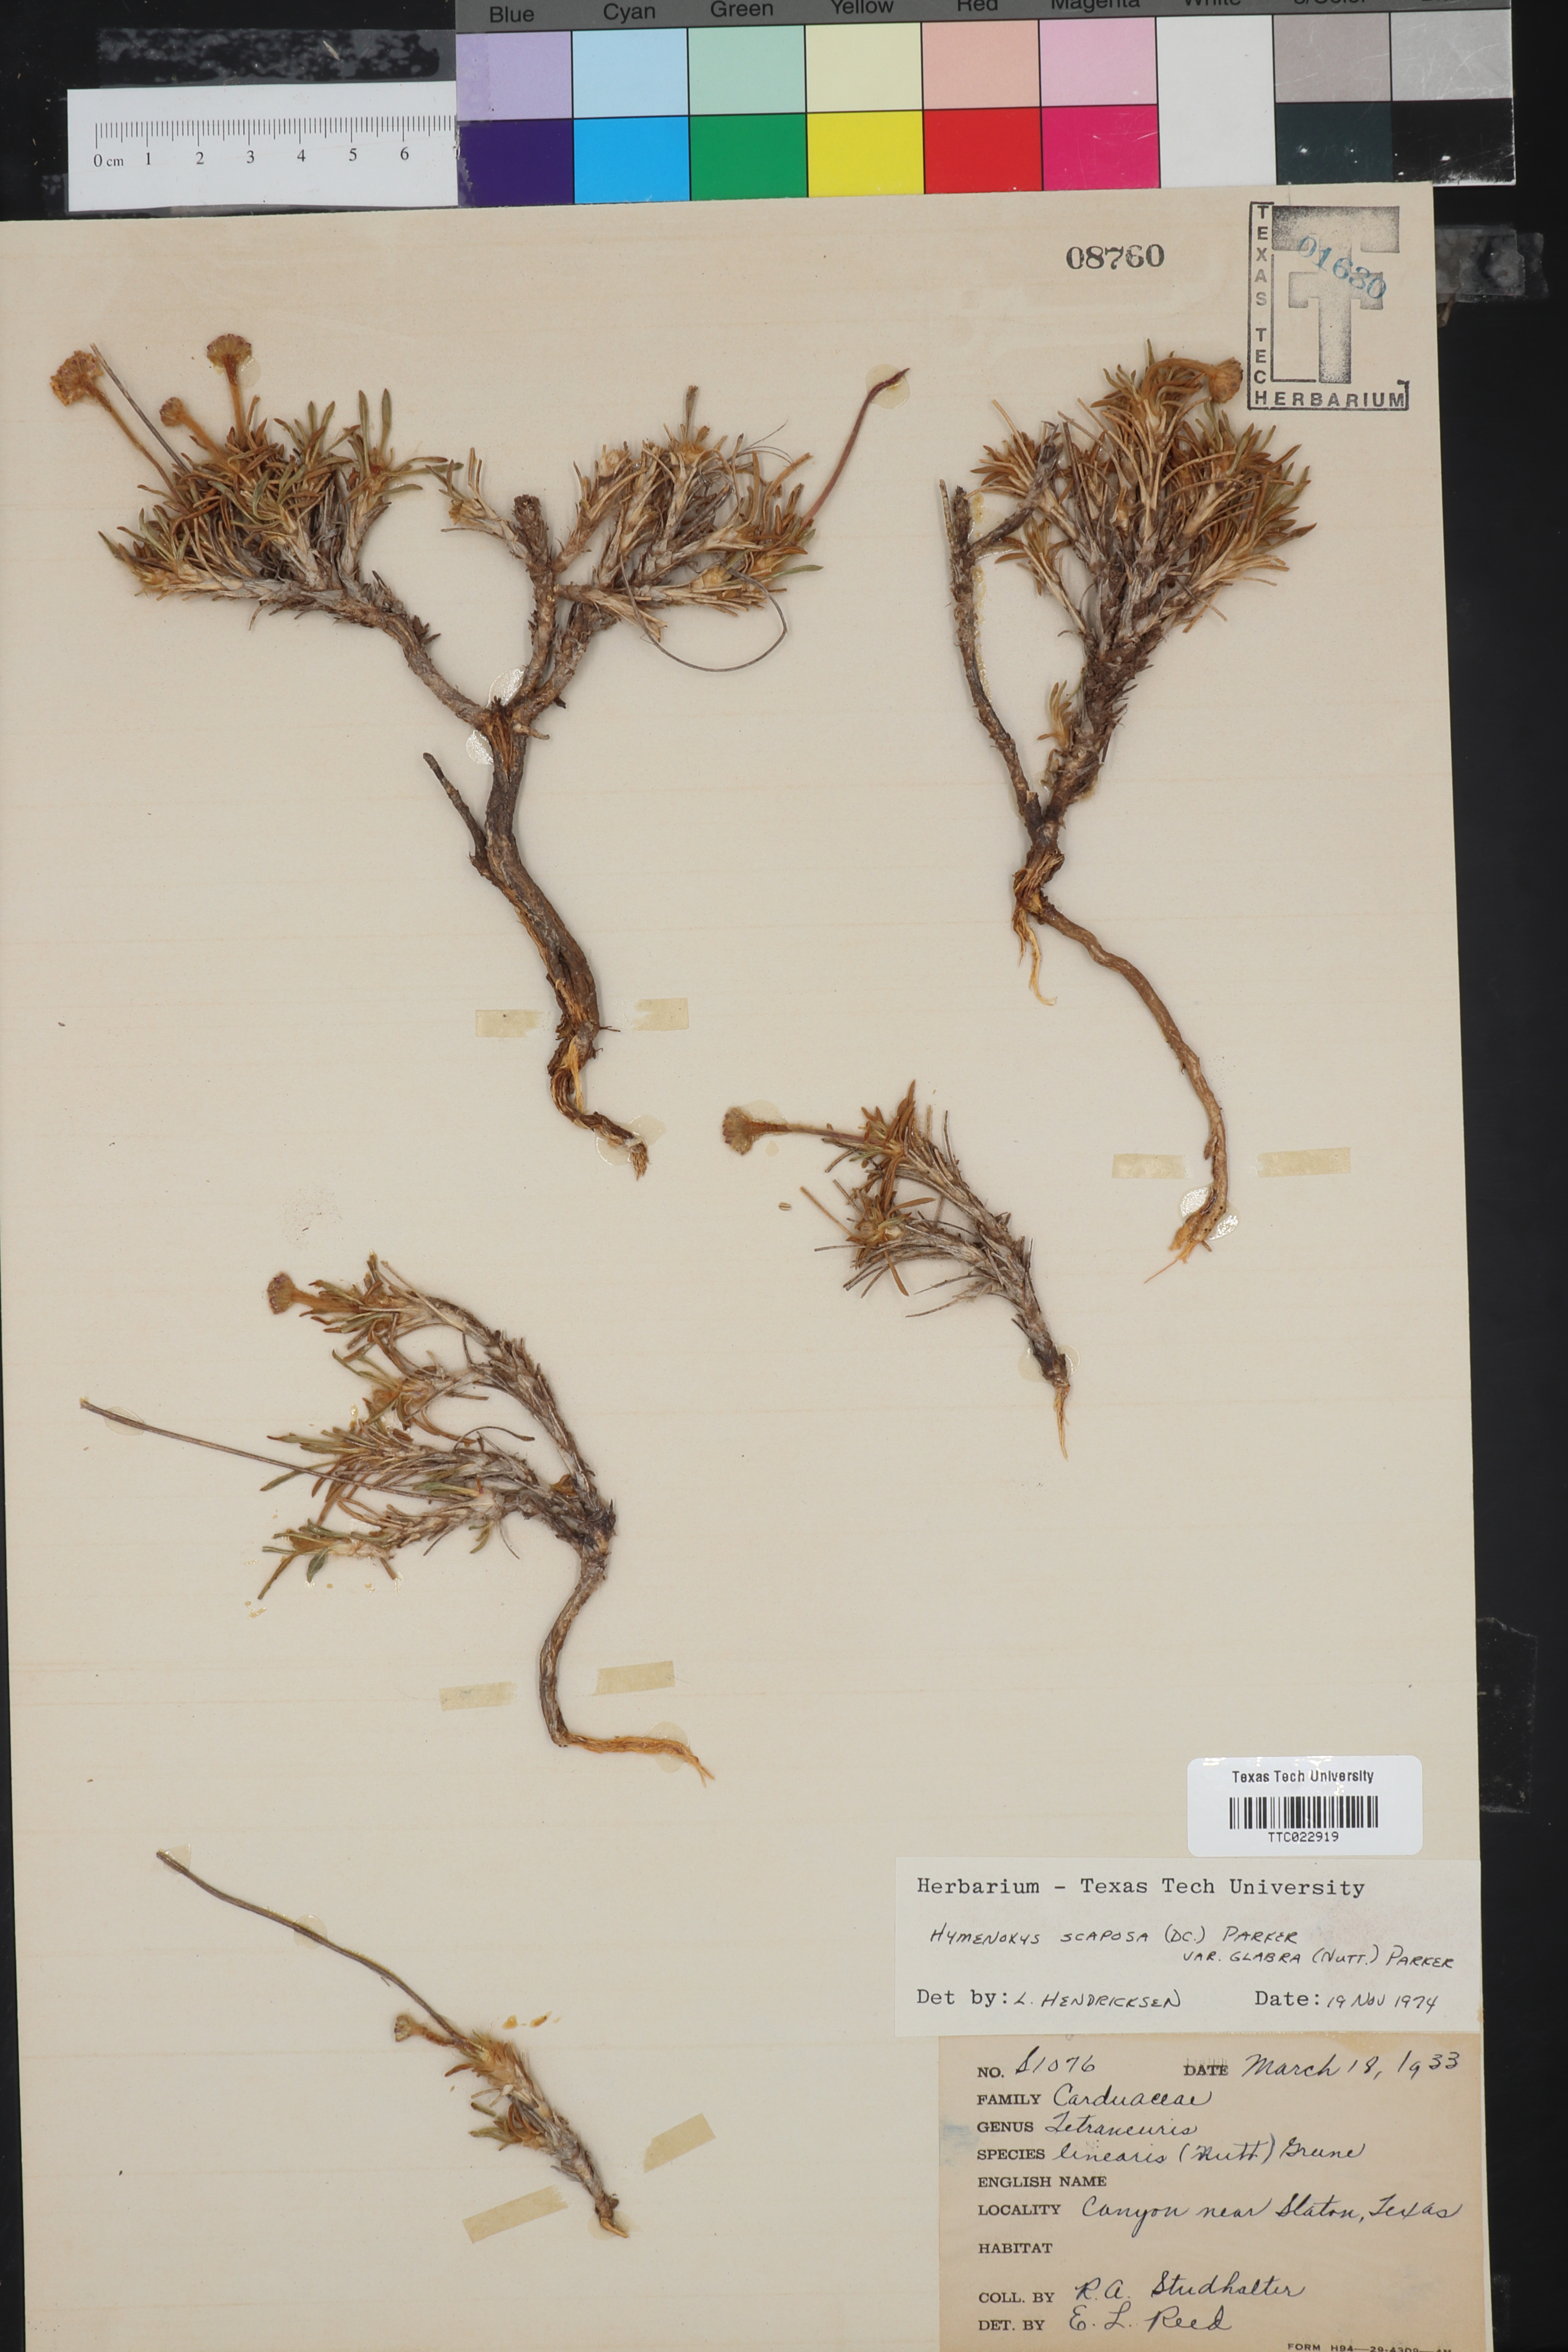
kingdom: Plantae
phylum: Tracheophyta
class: Magnoliopsida
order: Asterales
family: Asteraceae
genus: Tetraneuris
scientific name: Tetraneuris scaposa
